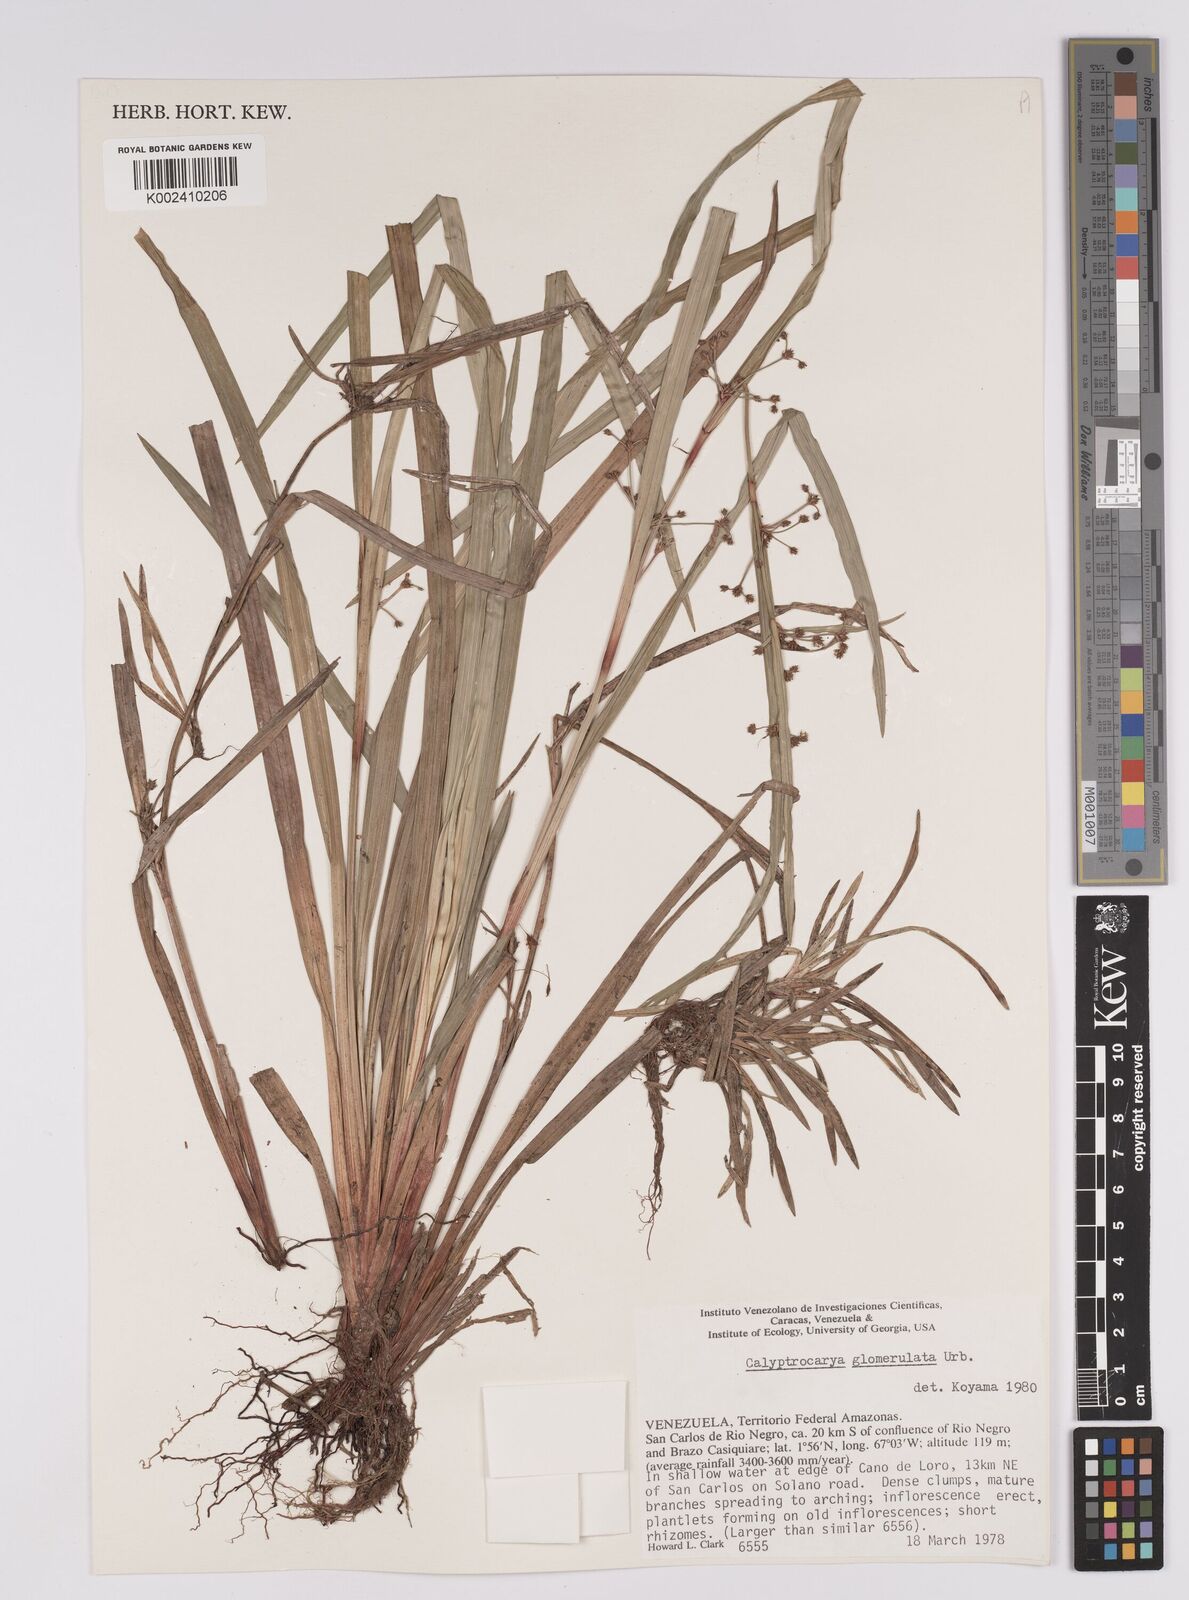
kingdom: Plantae
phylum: Tracheophyta
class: Liliopsida
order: Poales
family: Cyperaceae
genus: Calyptrocarya
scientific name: Calyptrocarya glomerulata
